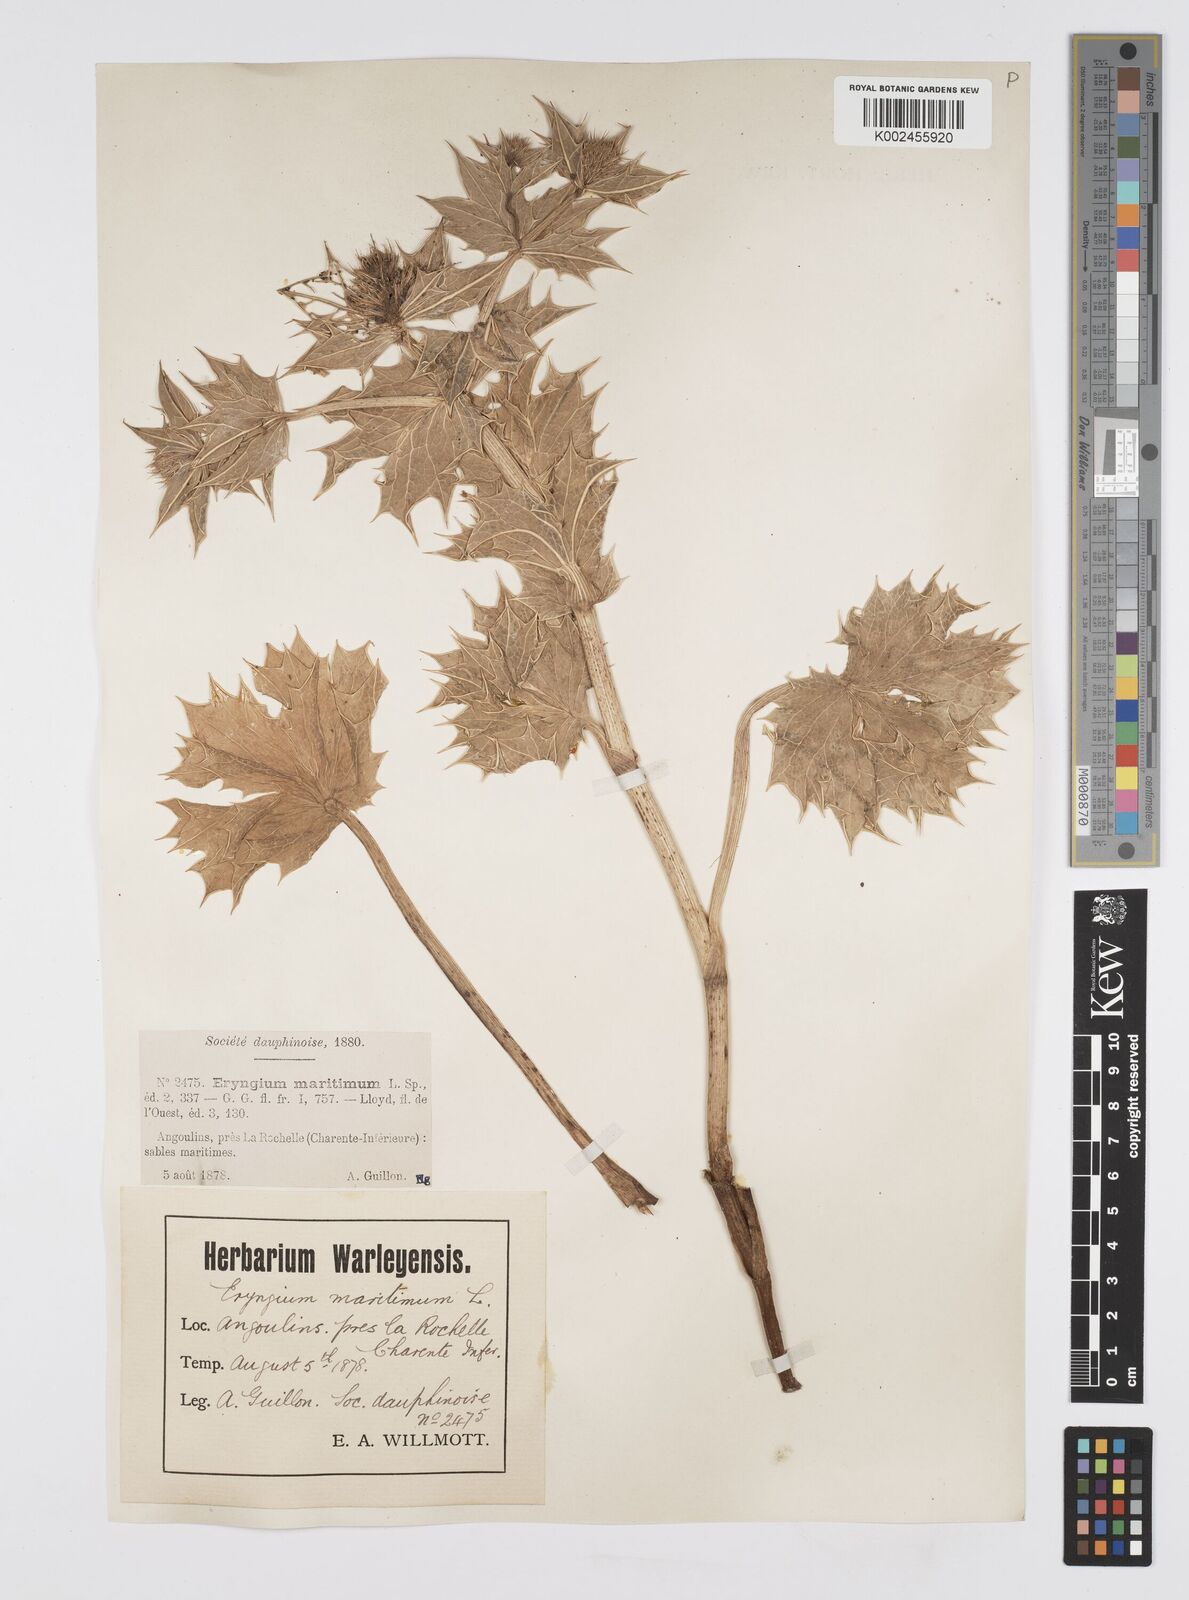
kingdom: Plantae
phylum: Tracheophyta
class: Magnoliopsida
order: Apiales
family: Apiaceae
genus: Eryngium
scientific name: Eryngium maritimum
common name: Sea-holly
